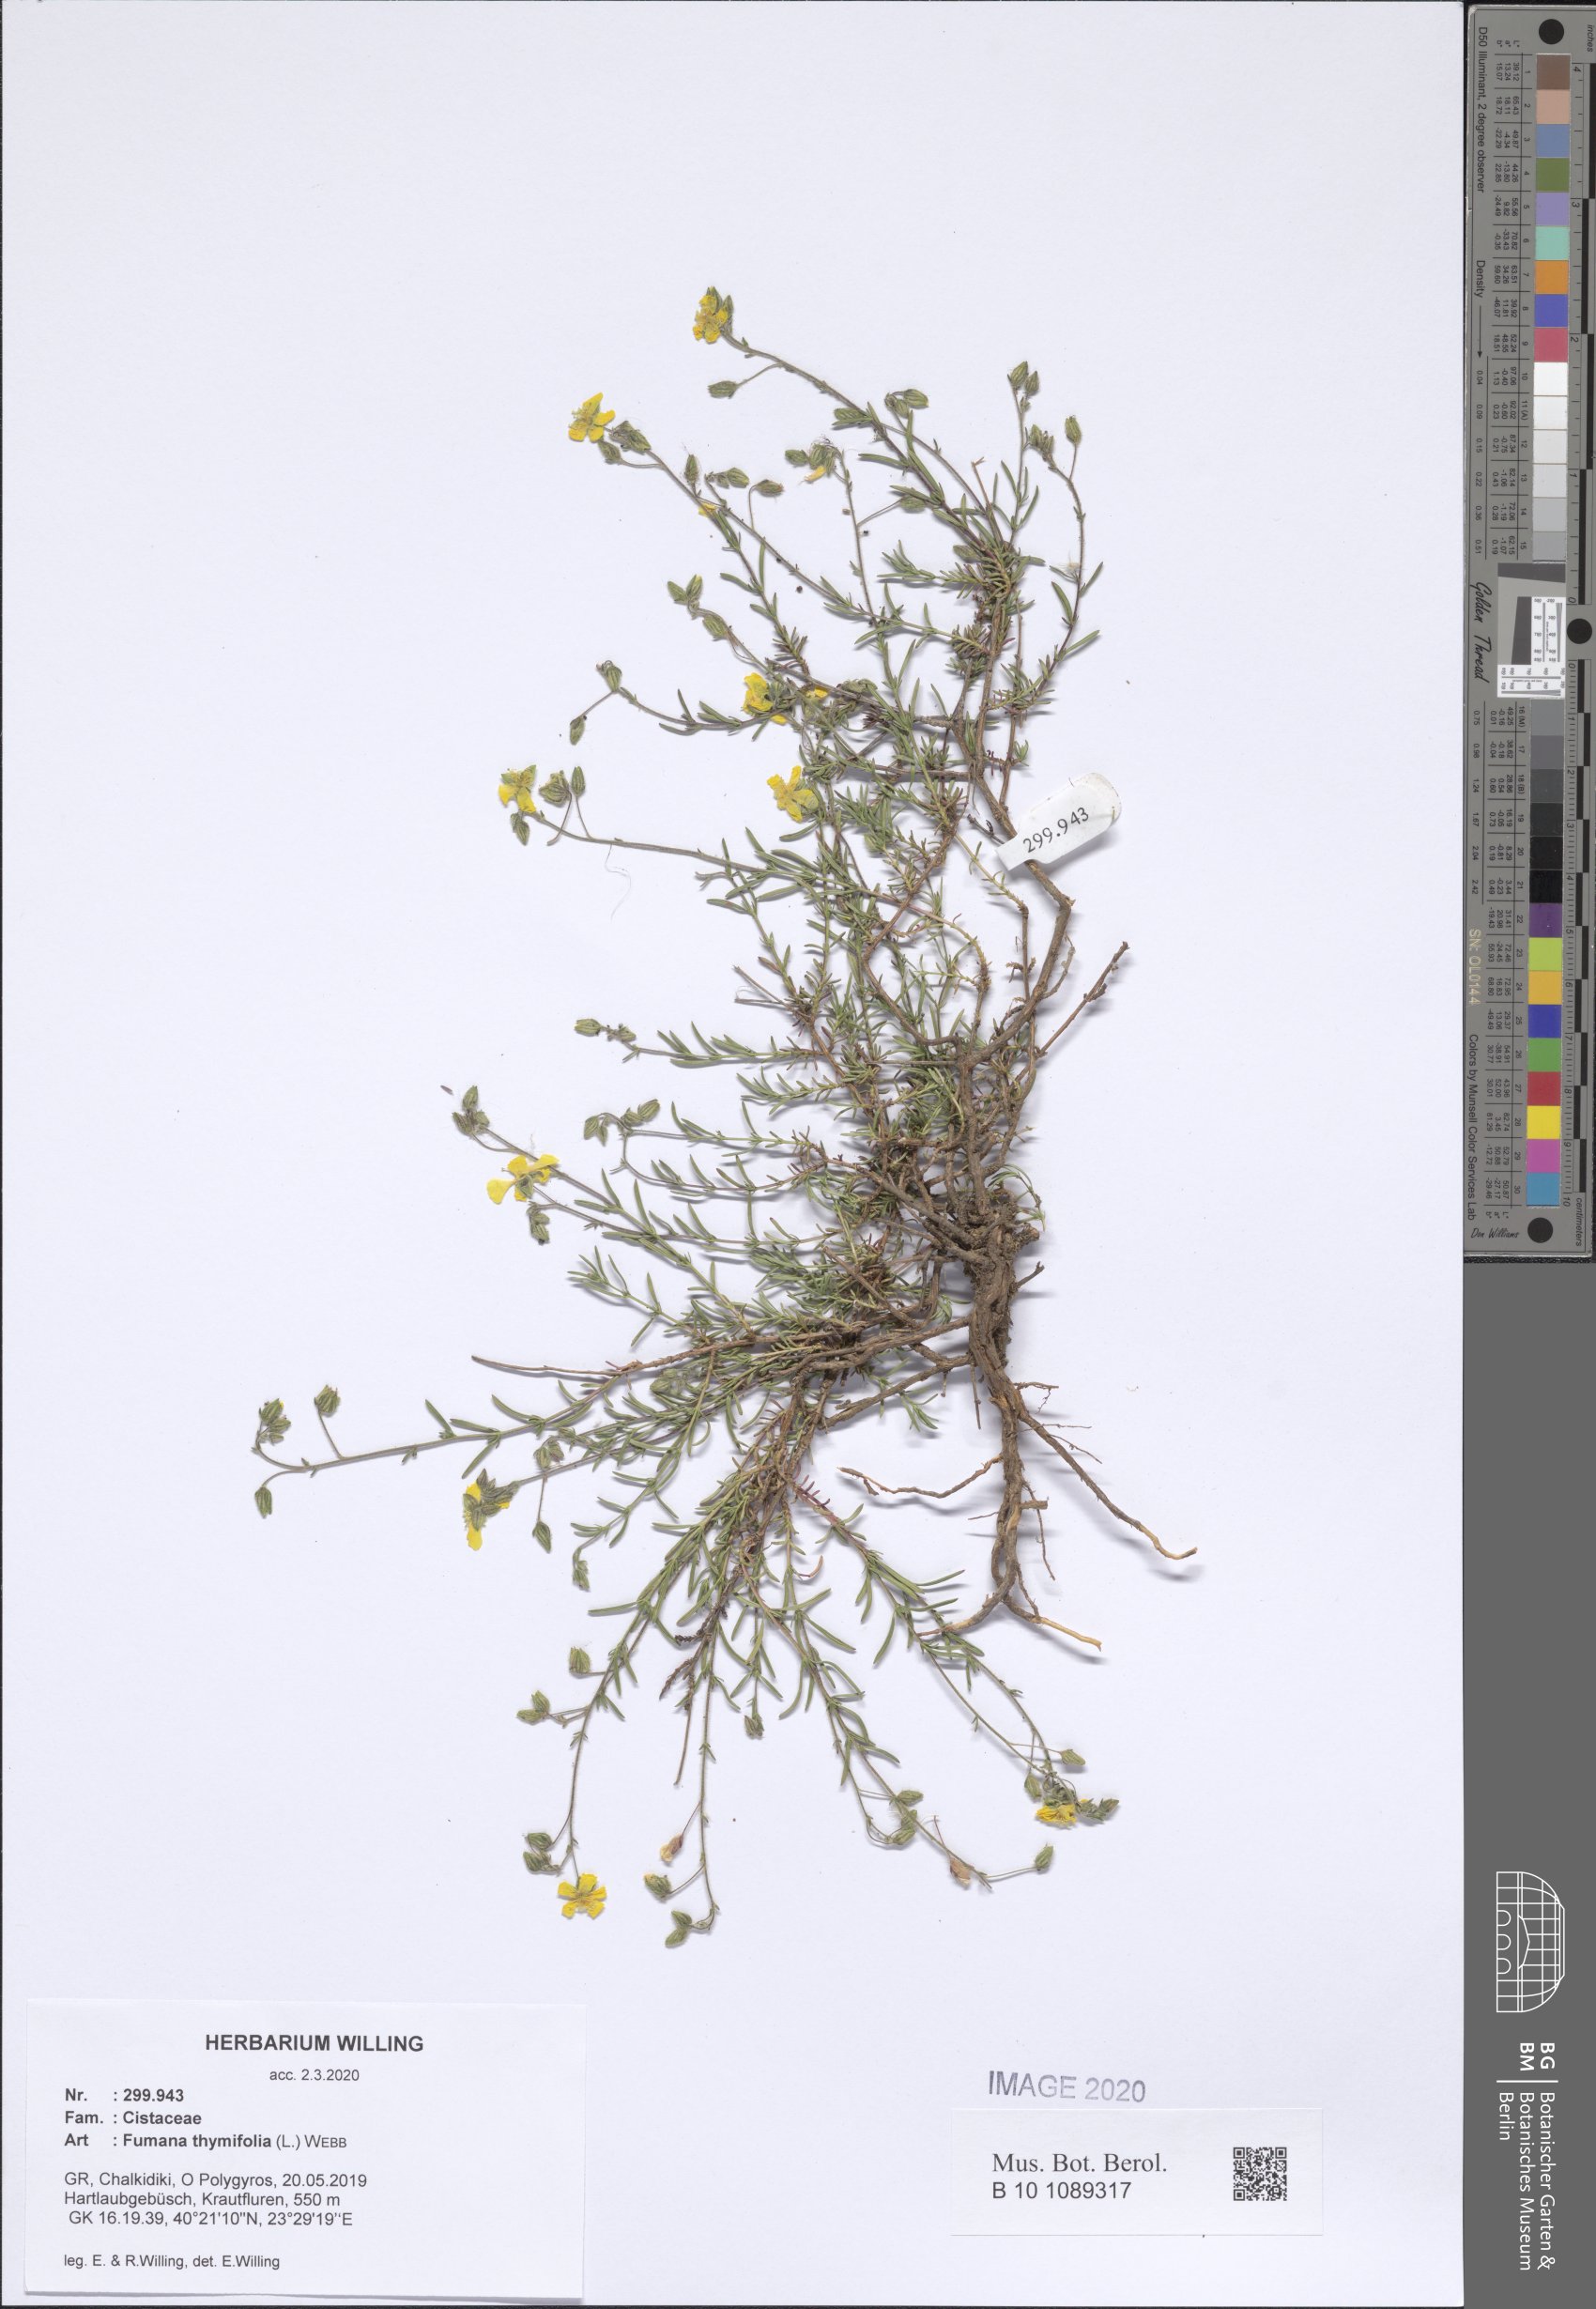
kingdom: Plantae
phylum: Tracheophyta
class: Magnoliopsida
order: Malvales
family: Cistaceae
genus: Fumana
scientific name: Fumana thymifolia
